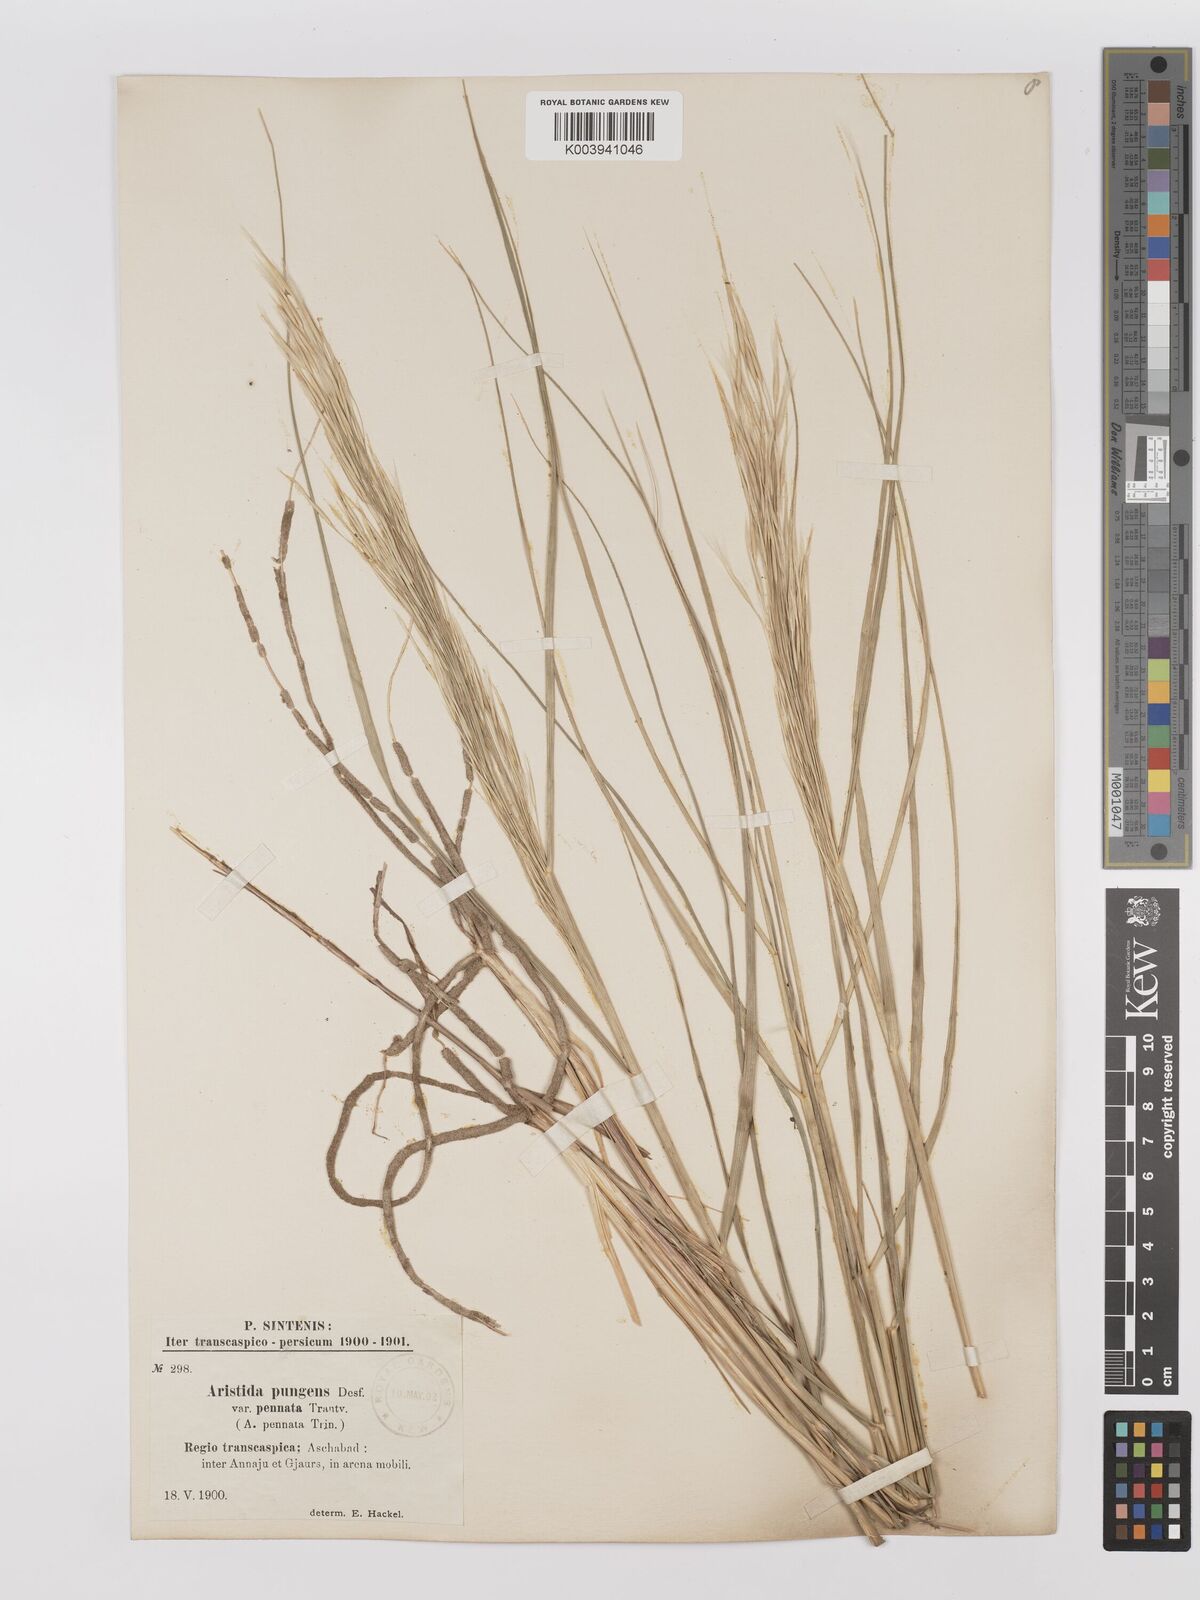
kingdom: Plantae
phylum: Tracheophyta
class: Liliopsida
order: Poales
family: Poaceae
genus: Stipagrostis
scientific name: Stipagrostis pungens
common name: Three-awn grass
